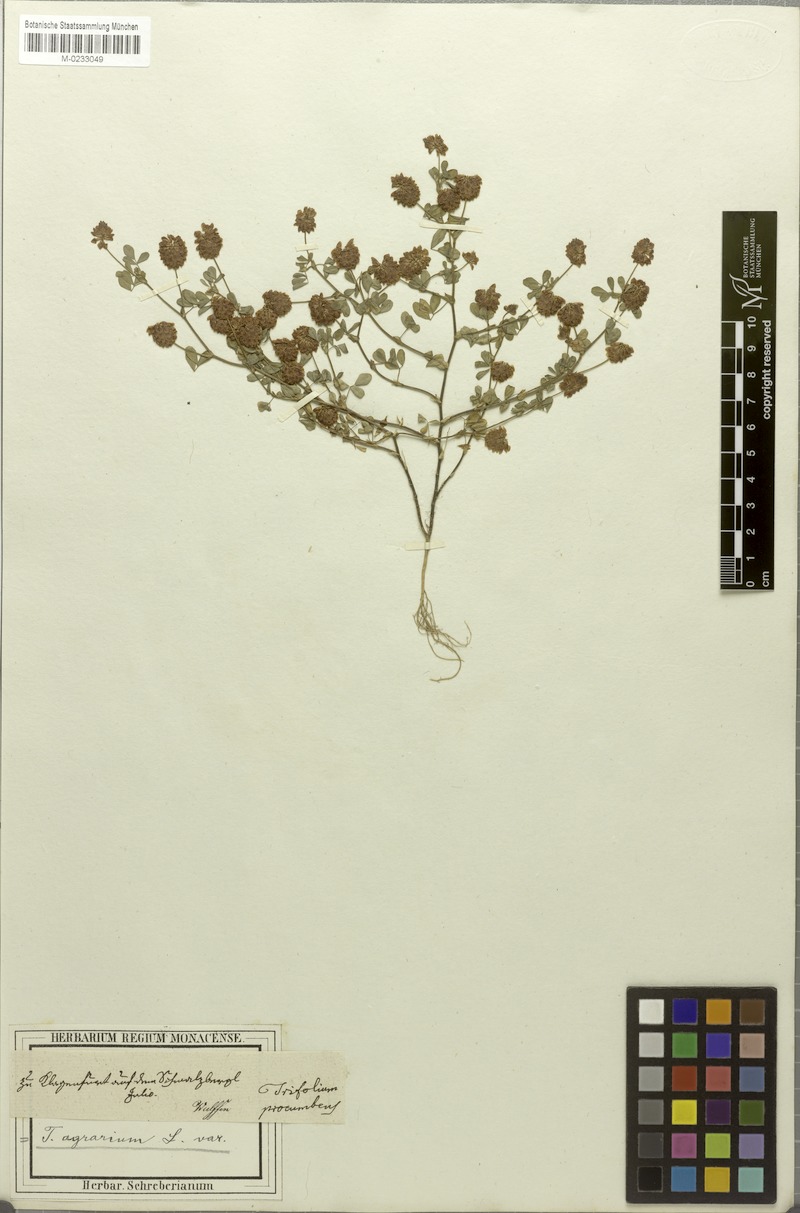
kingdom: Plantae
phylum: Tracheophyta
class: Magnoliopsida
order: Fabales
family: Fabaceae
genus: Trifolium
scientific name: Trifolium campestre
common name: Field clover
